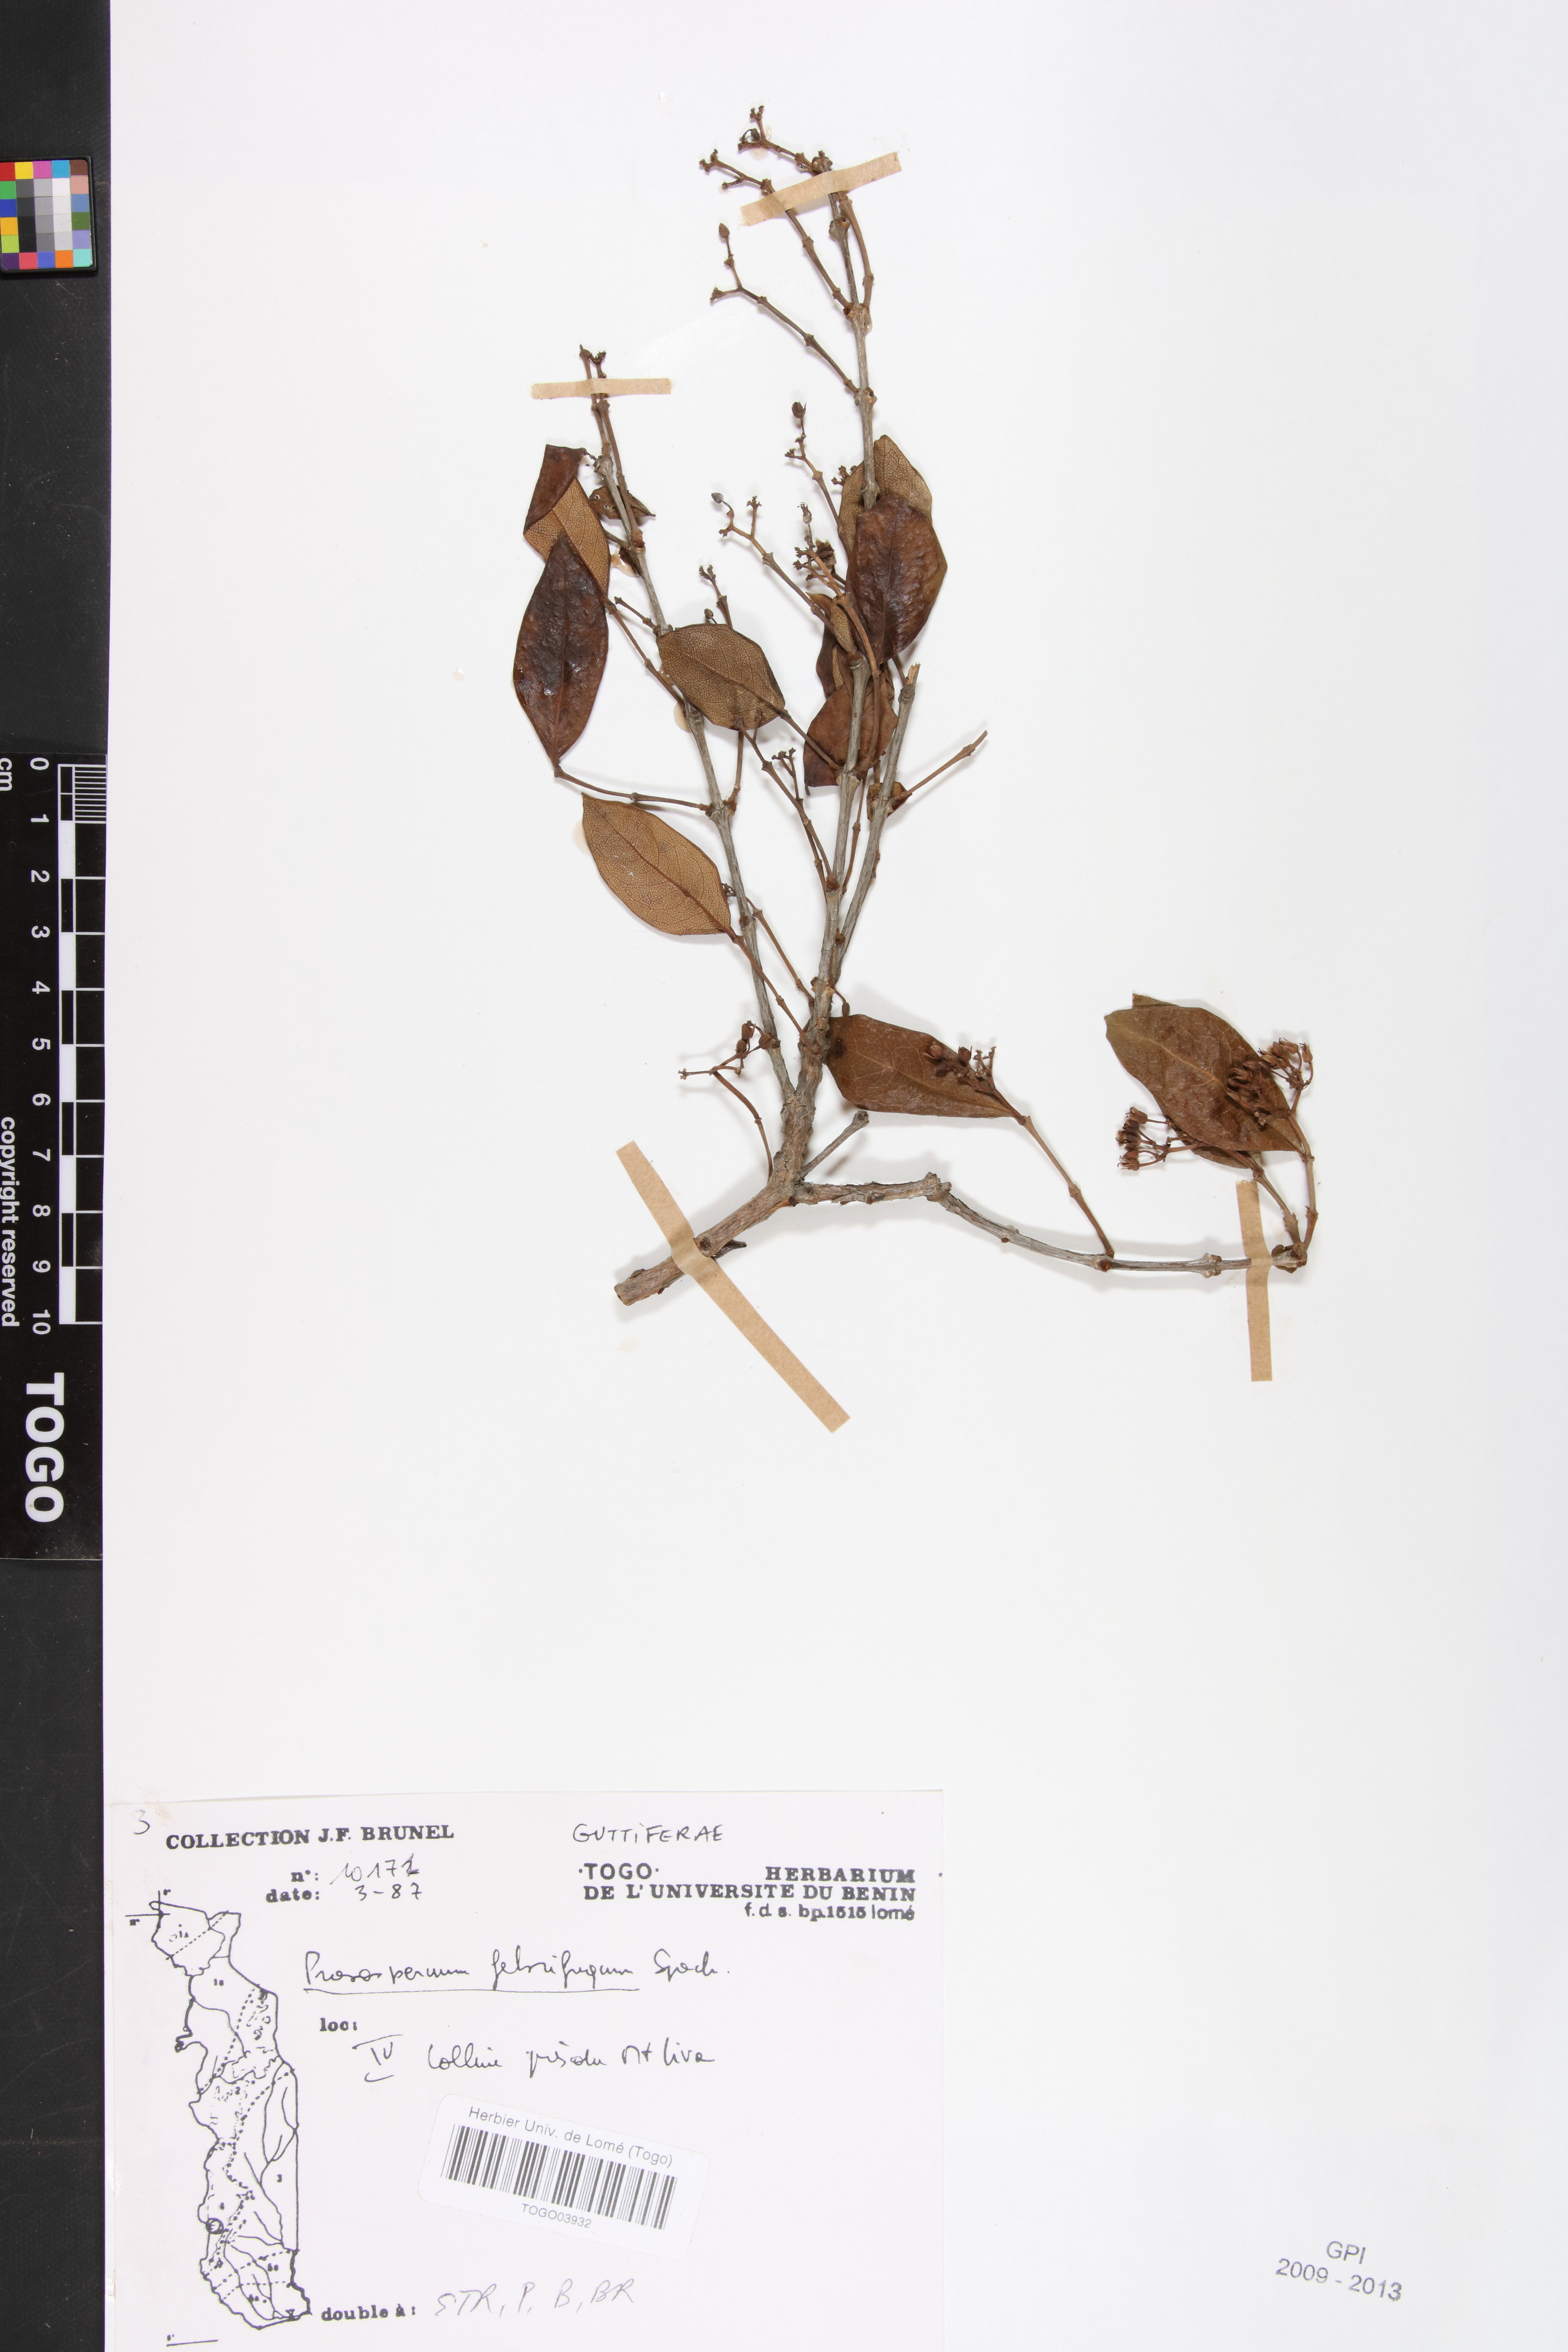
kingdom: Plantae
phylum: Tracheophyta
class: Magnoliopsida
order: Malpighiales
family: Hypericaceae
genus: Psorospermum
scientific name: Psorospermum febrifugum
